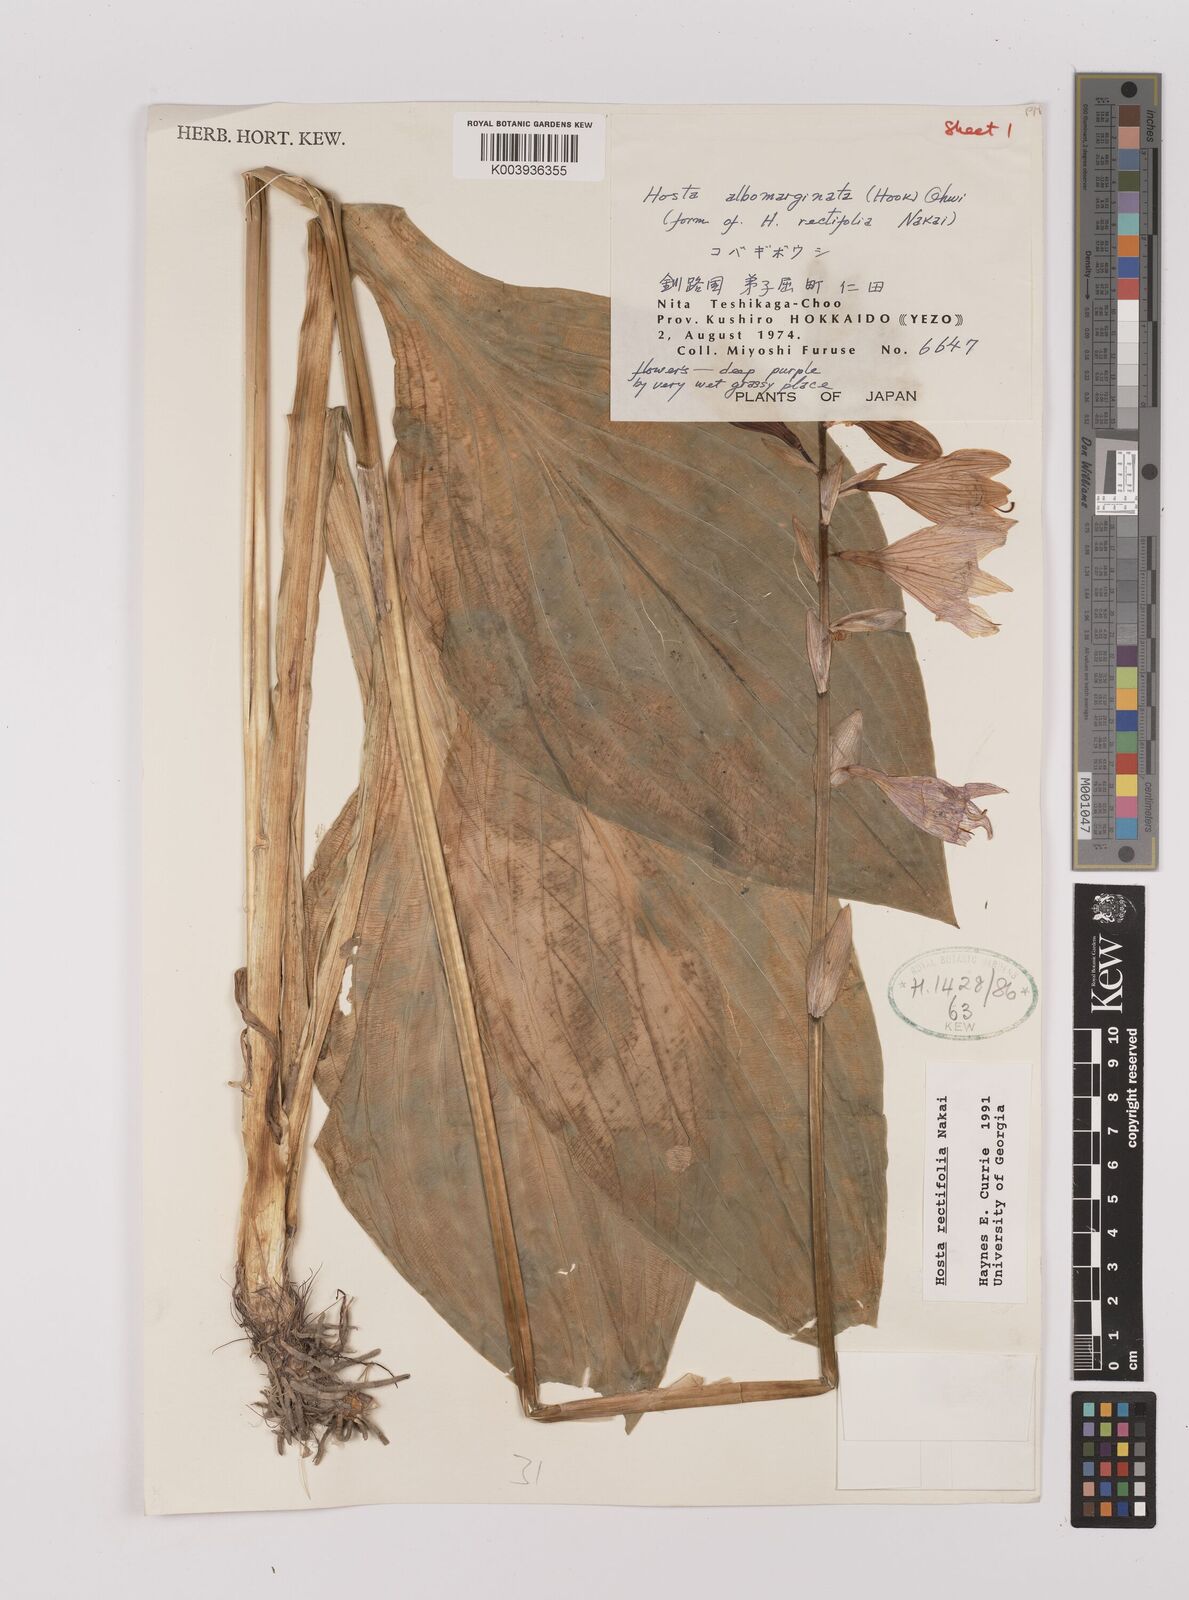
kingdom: Plantae
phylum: Tracheophyta
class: Liliopsida
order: Asparagales
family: Asparagaceae
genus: Hosta
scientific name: Hosta sieboldii
